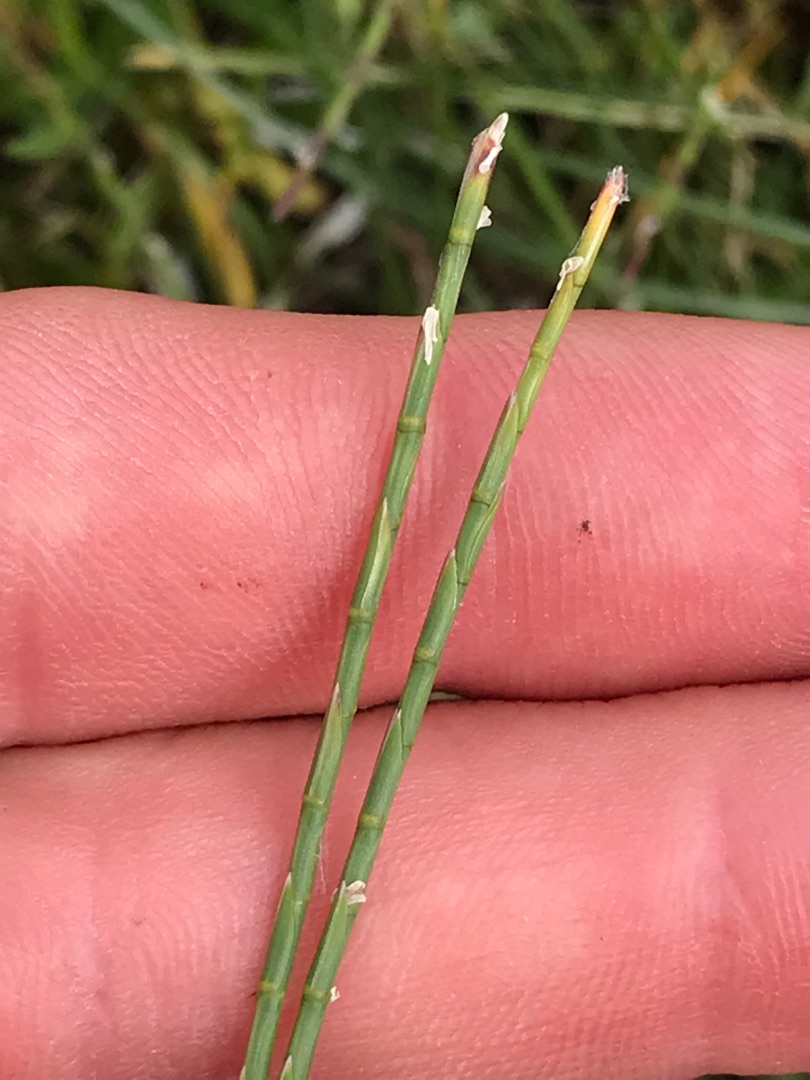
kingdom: Plantae
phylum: Tracheophyta
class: Liliopsida
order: Poales
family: Poaceae
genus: Parapholis
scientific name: Parapholis strigosa
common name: Spidshale
